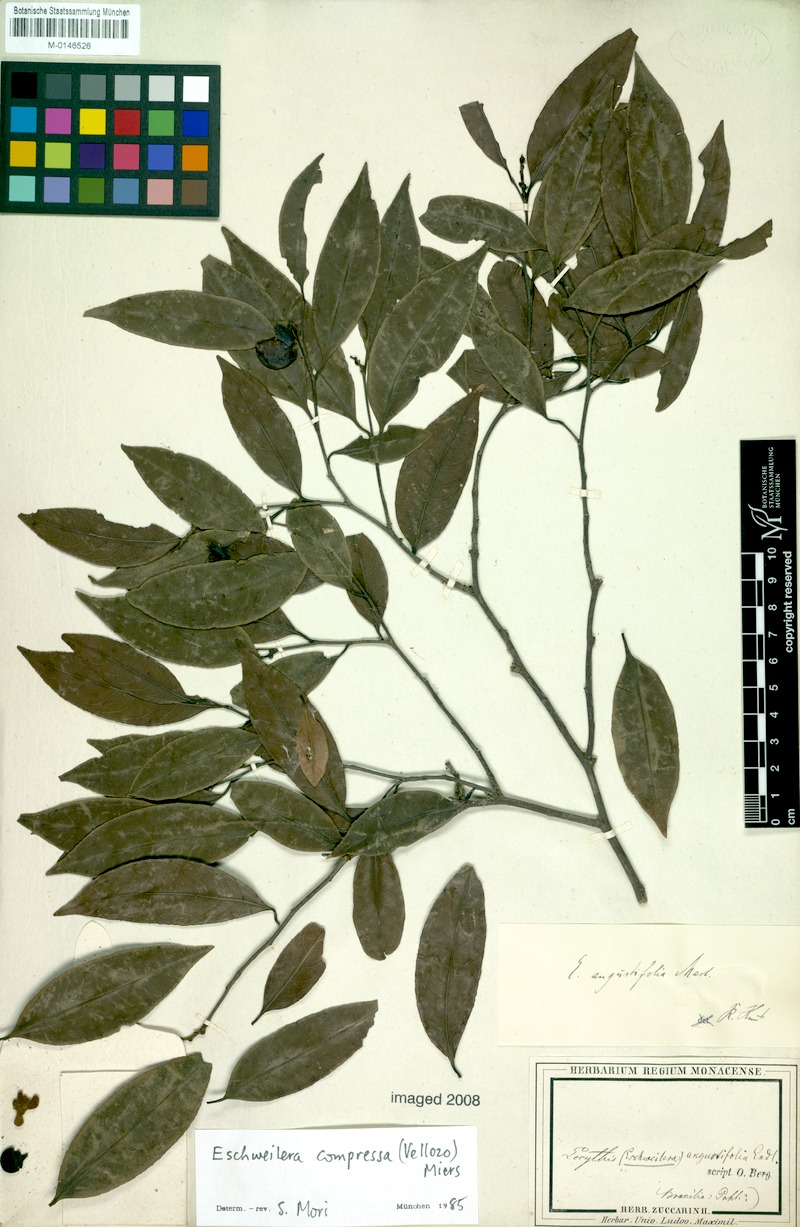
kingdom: Plantae
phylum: Tracheophyta
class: Magnoliopsida
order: Ericales
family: Lecythidaceae
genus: Eschweilera
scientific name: Eschweilera compressa
